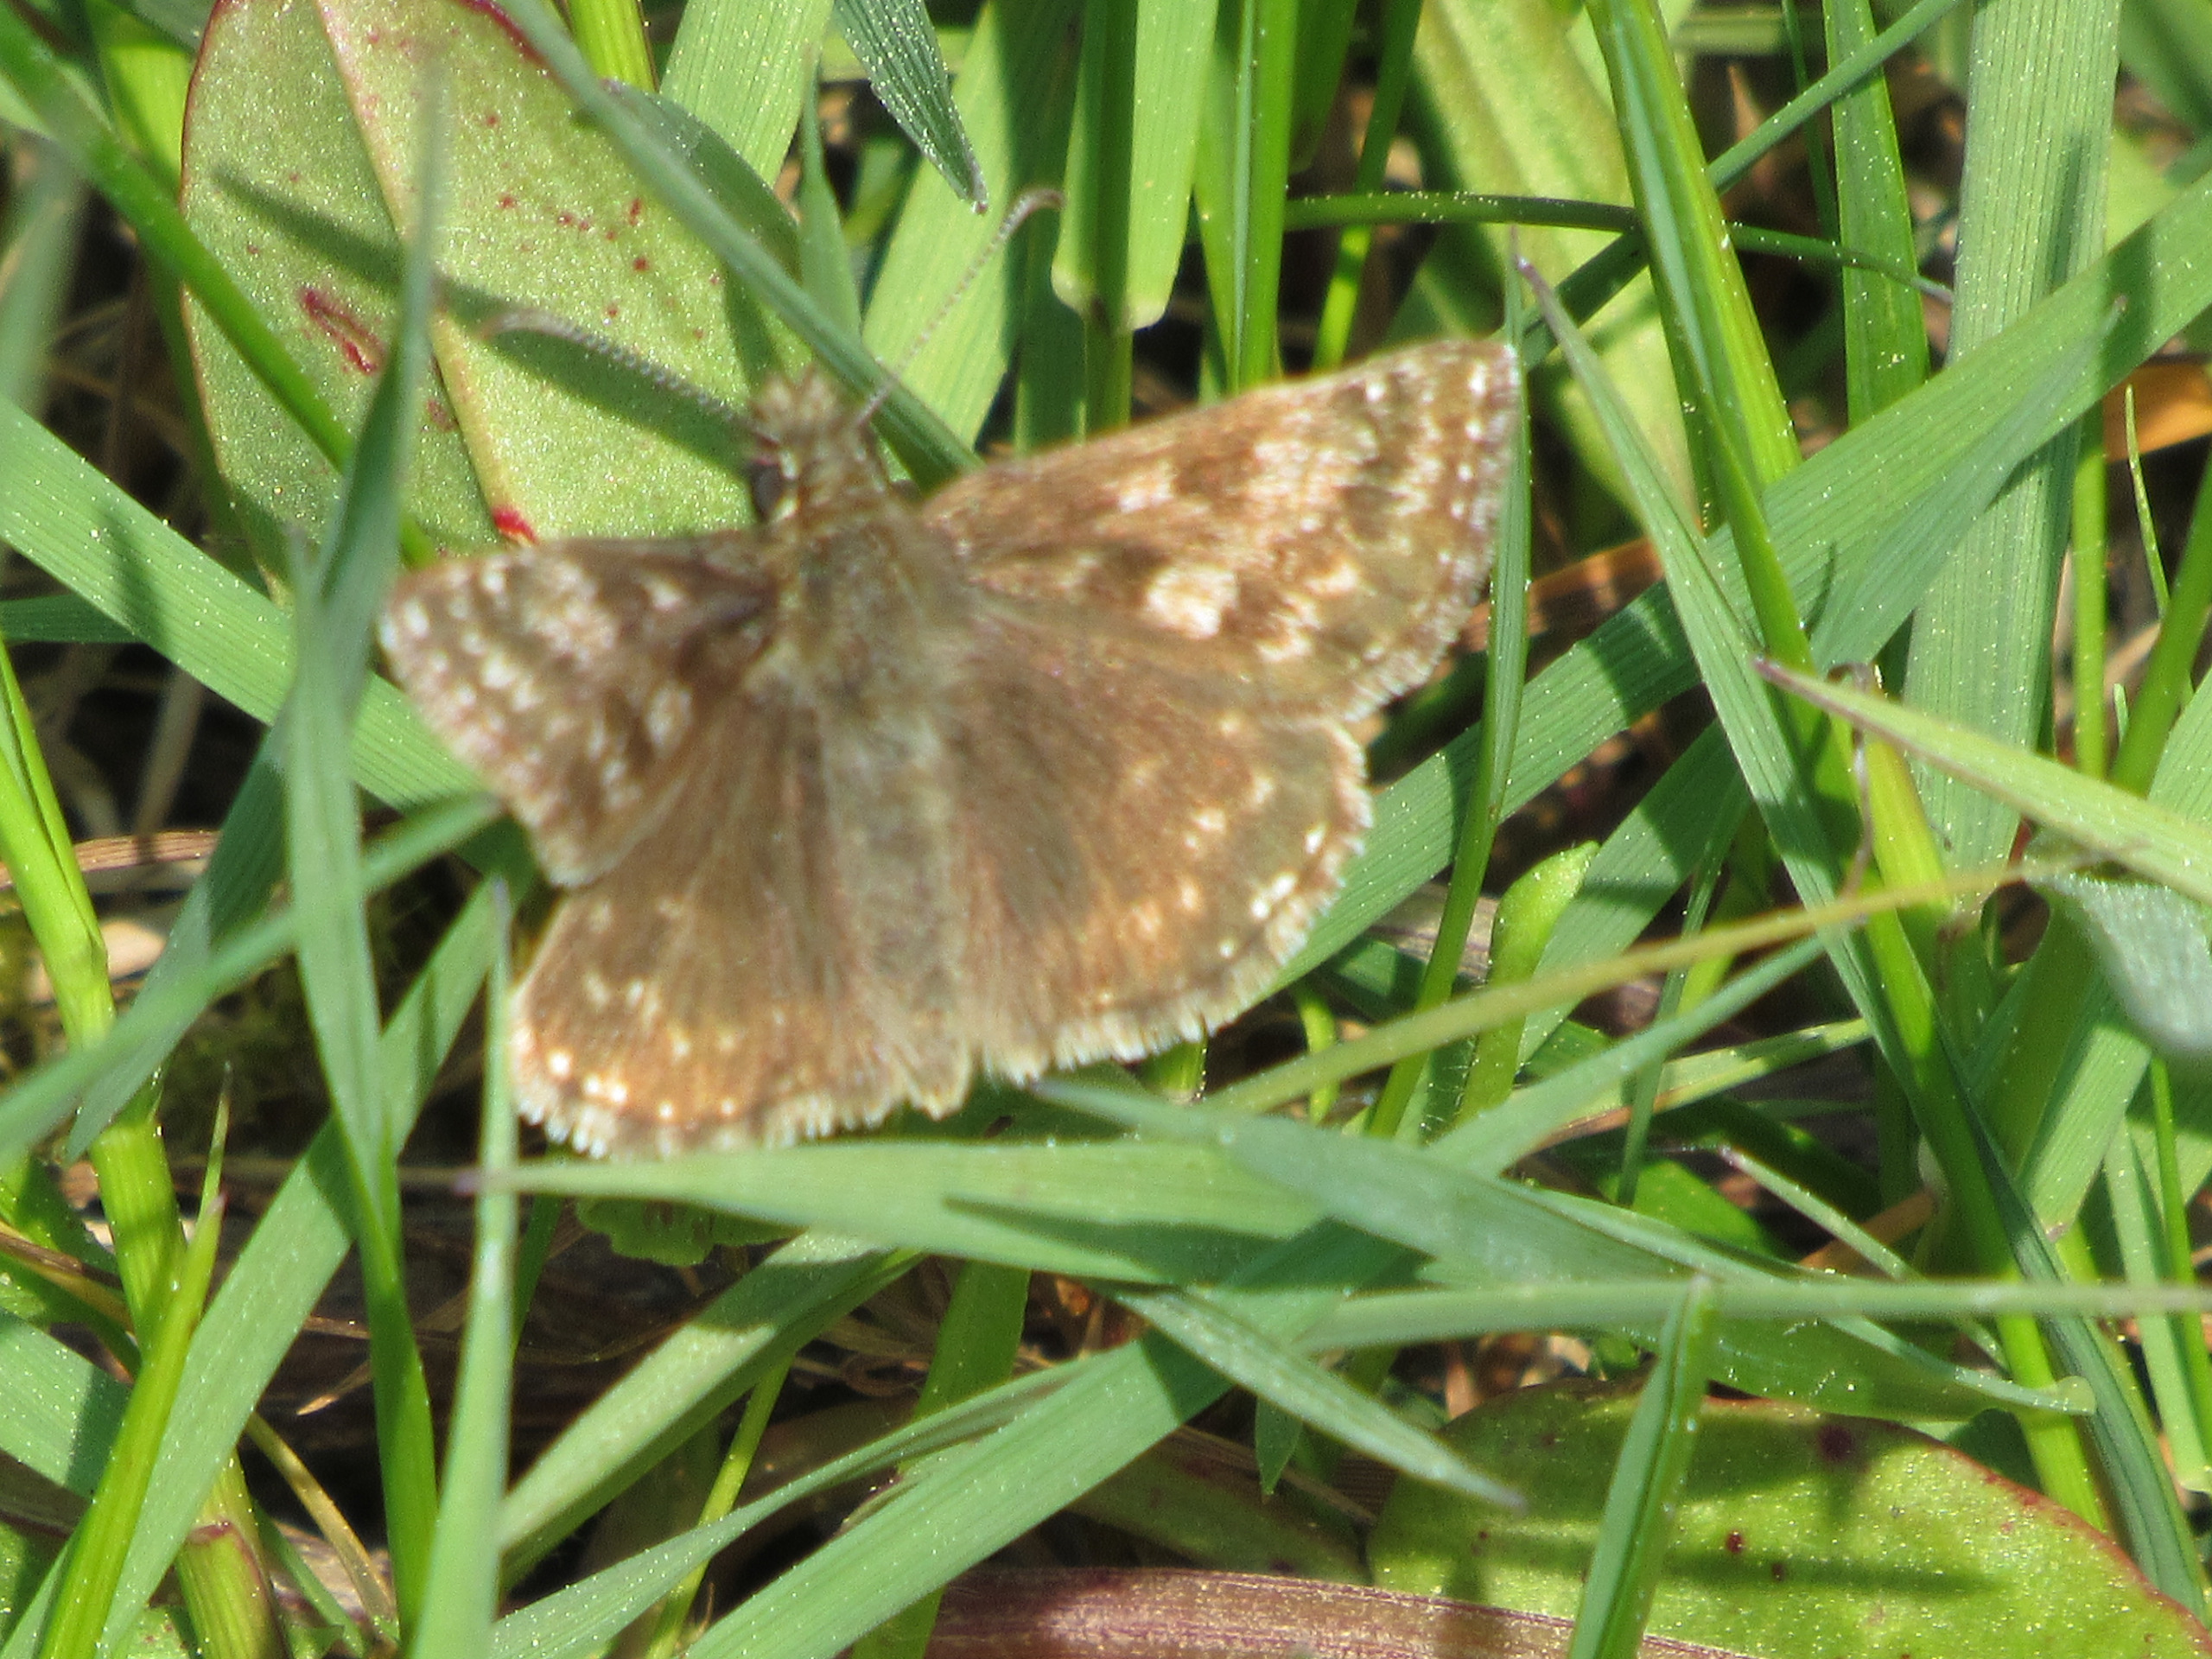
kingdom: Animalia
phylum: Arthropoda
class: Insecta
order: Lepidoptera
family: Hesperiidae
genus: Erynnis
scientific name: Erynnis tages
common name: Gråbåndet bredpande
